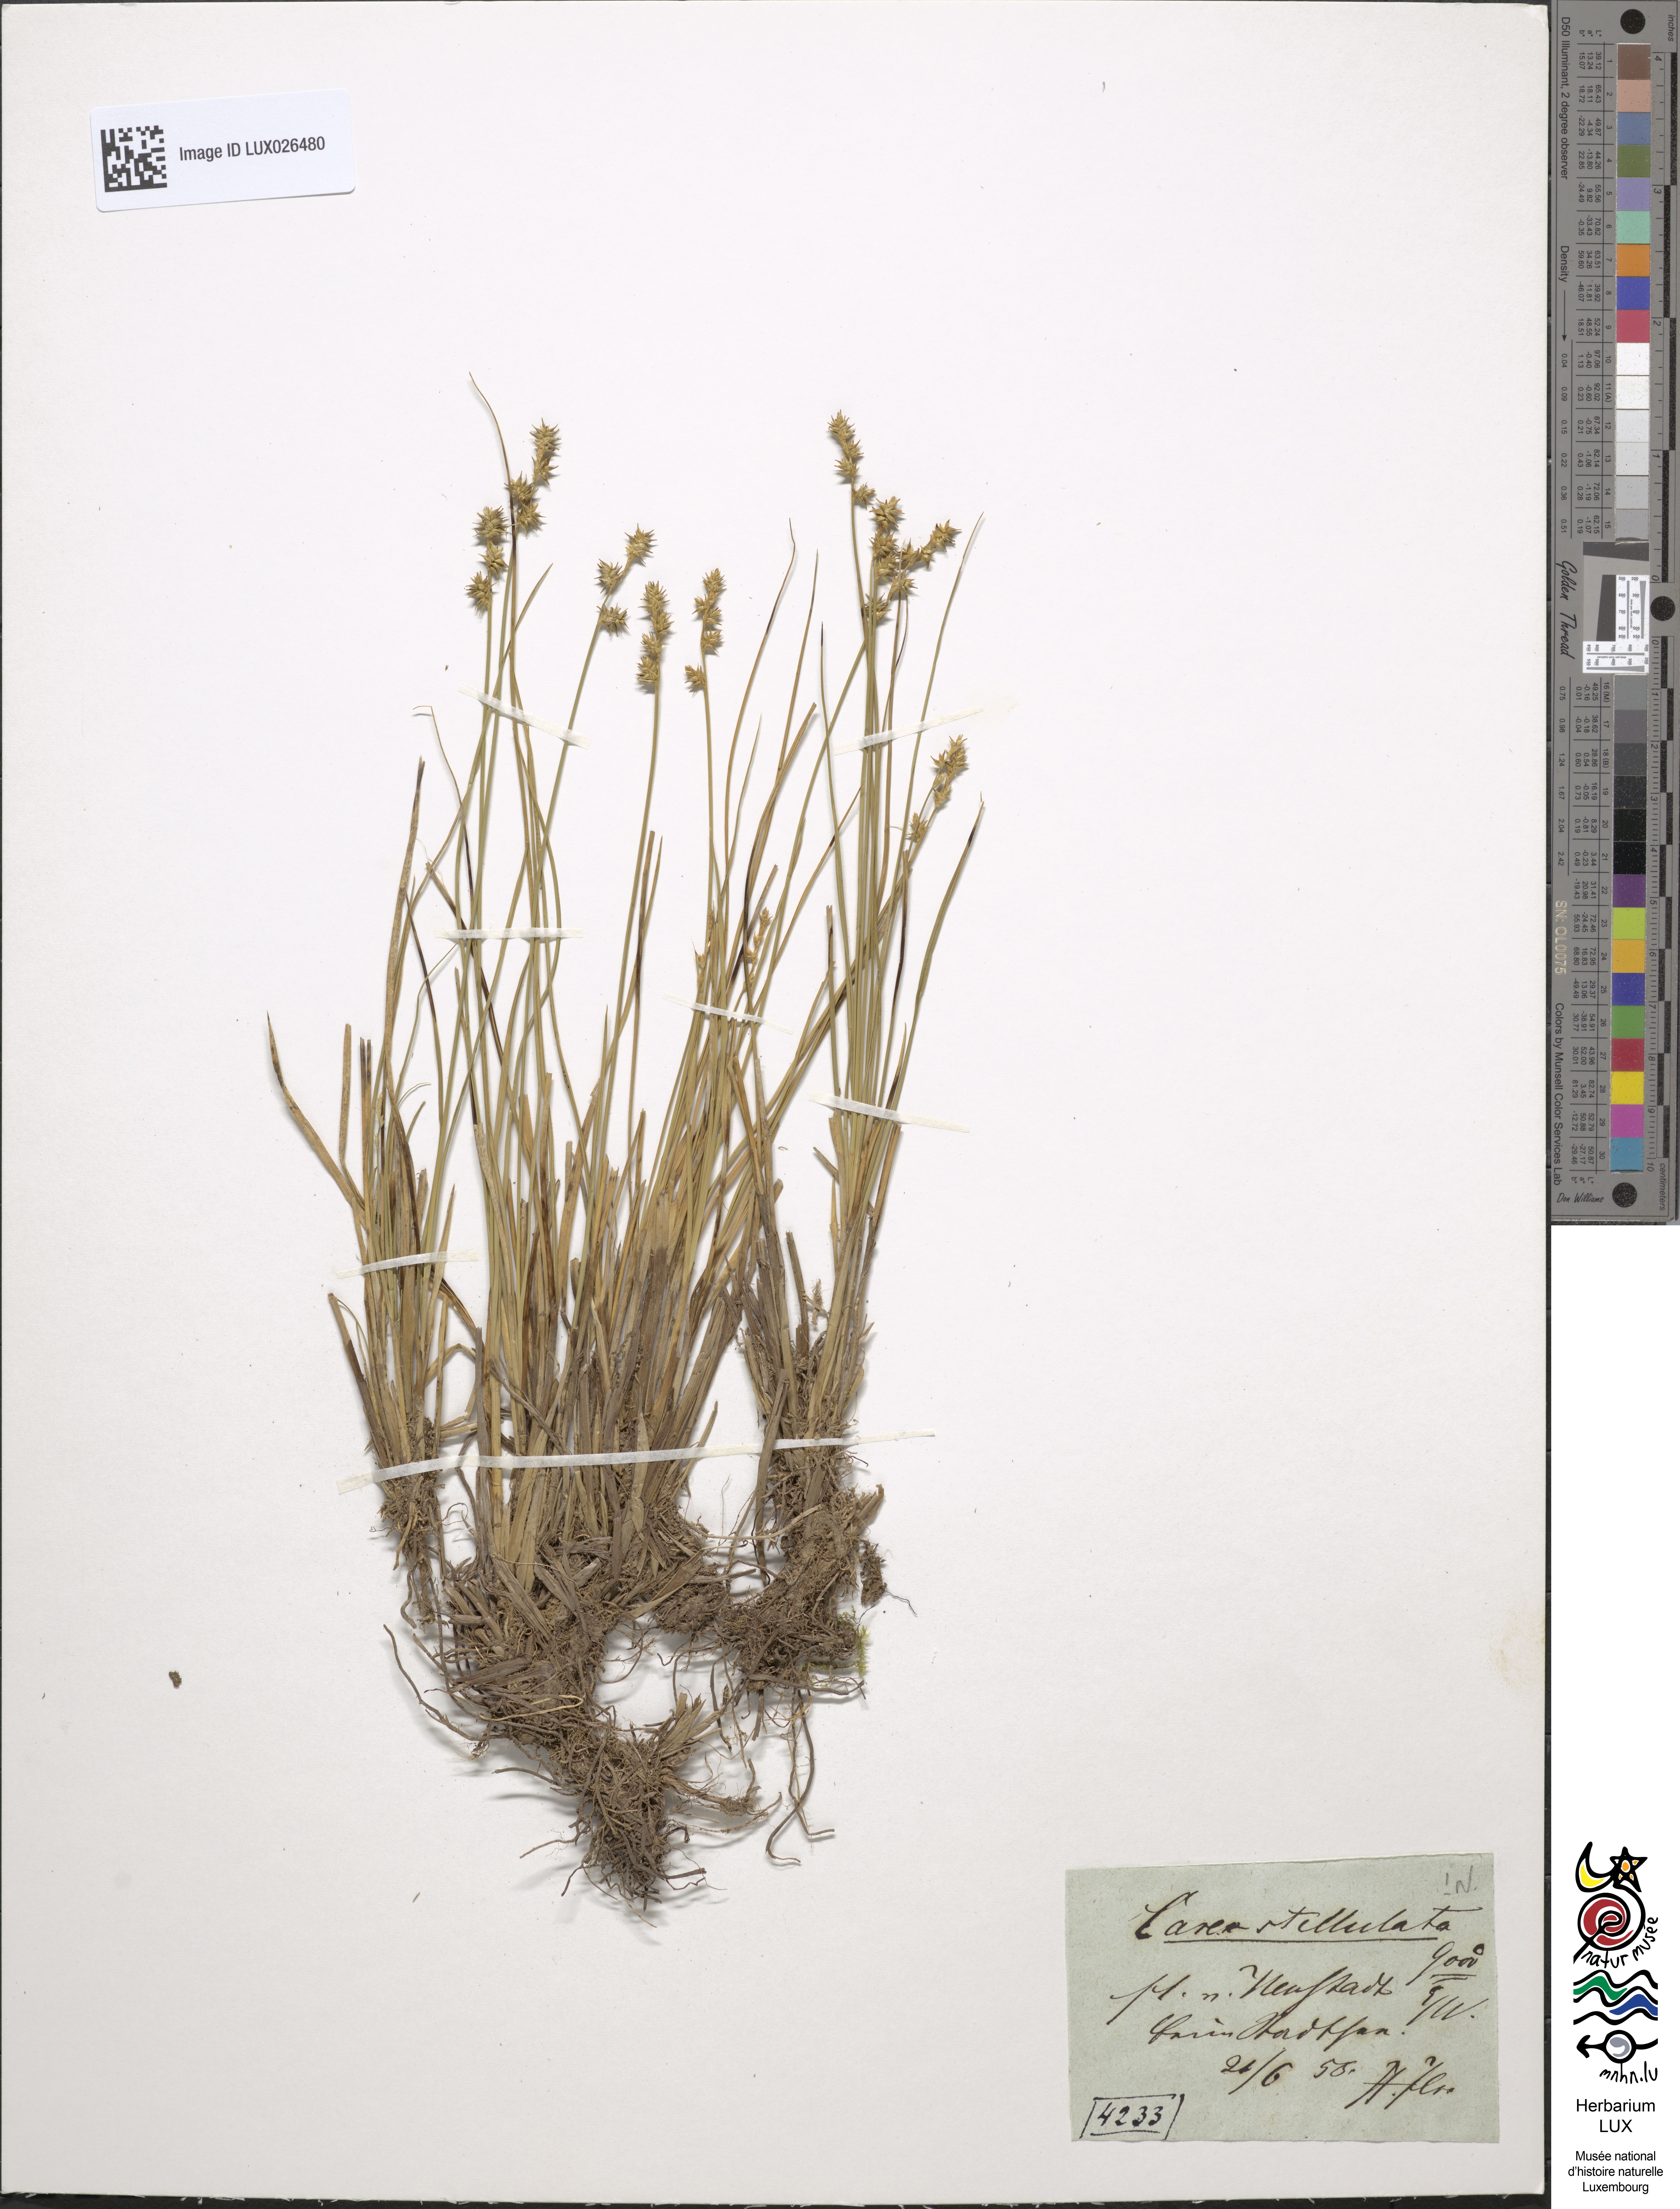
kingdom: Plantae
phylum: Tracheophyta
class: Liliopsida
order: Poales
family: Cyperaceae
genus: Carex
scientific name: Carex echinata
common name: Star sedge
